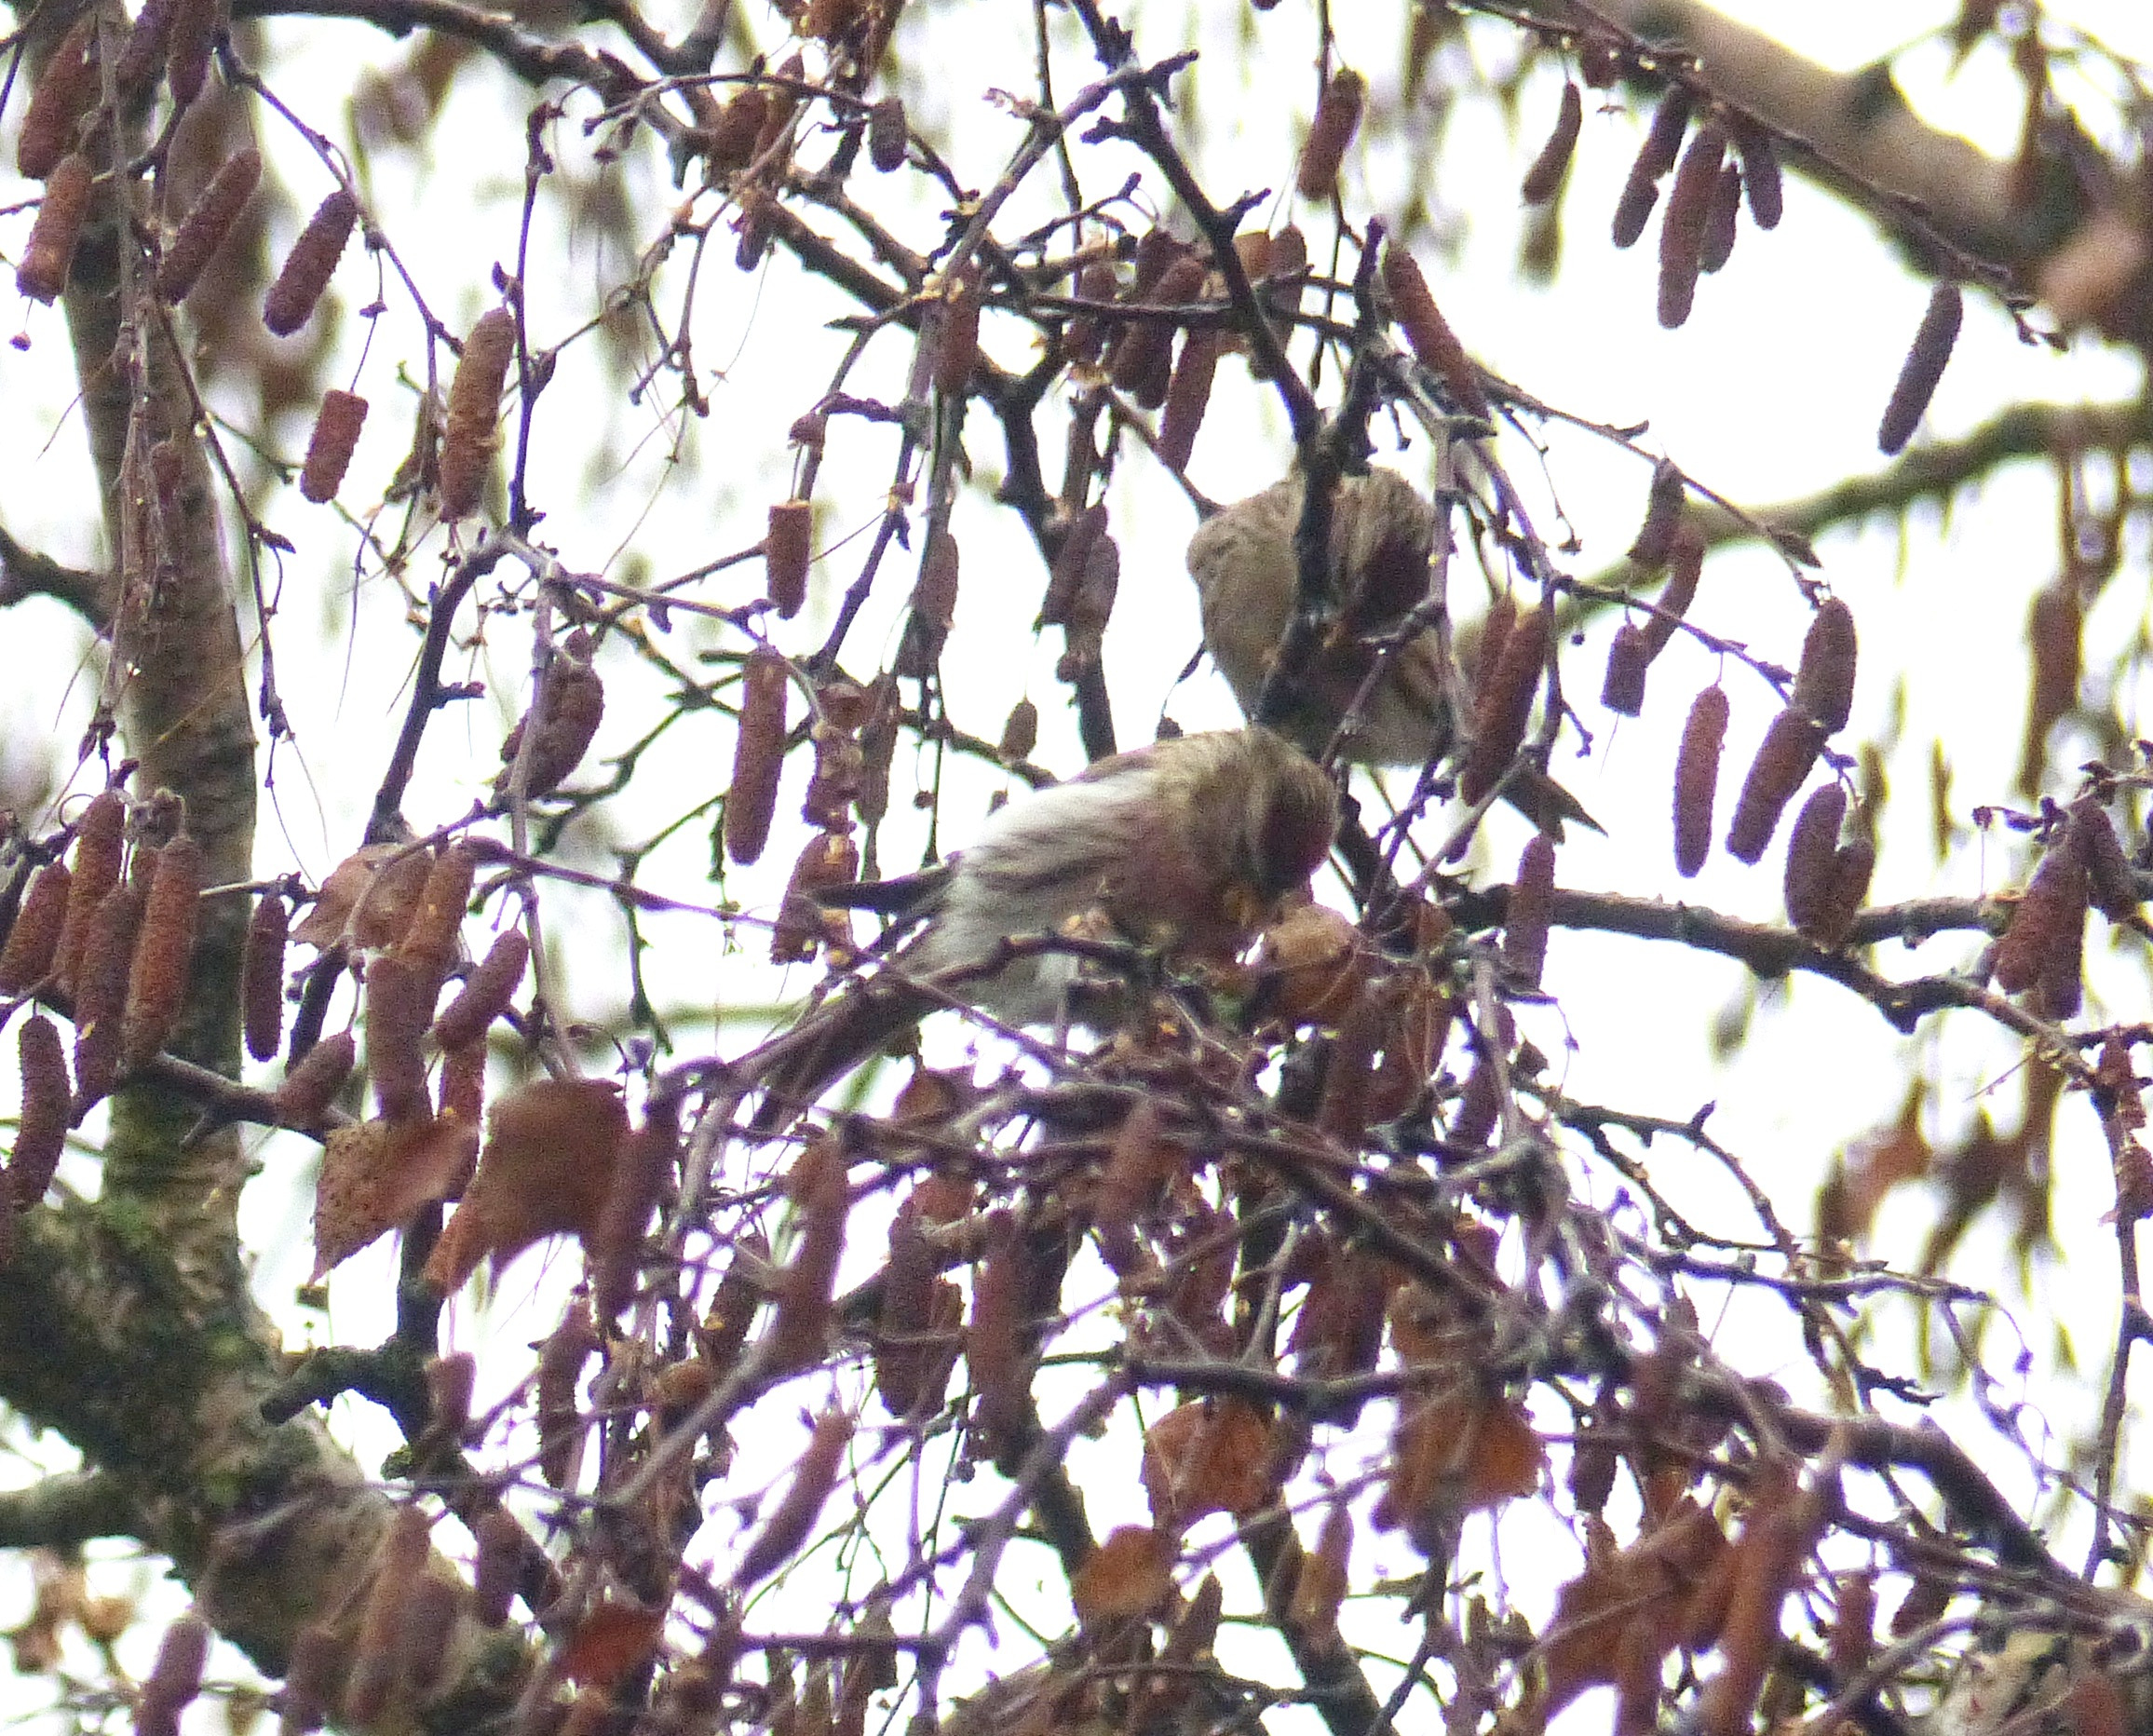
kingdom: Animalia
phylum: Chordata
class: Aves
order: Passeriformes
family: Fringillidae
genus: Acanthis
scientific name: Acanthis flammea
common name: Nordlig gråsisken
